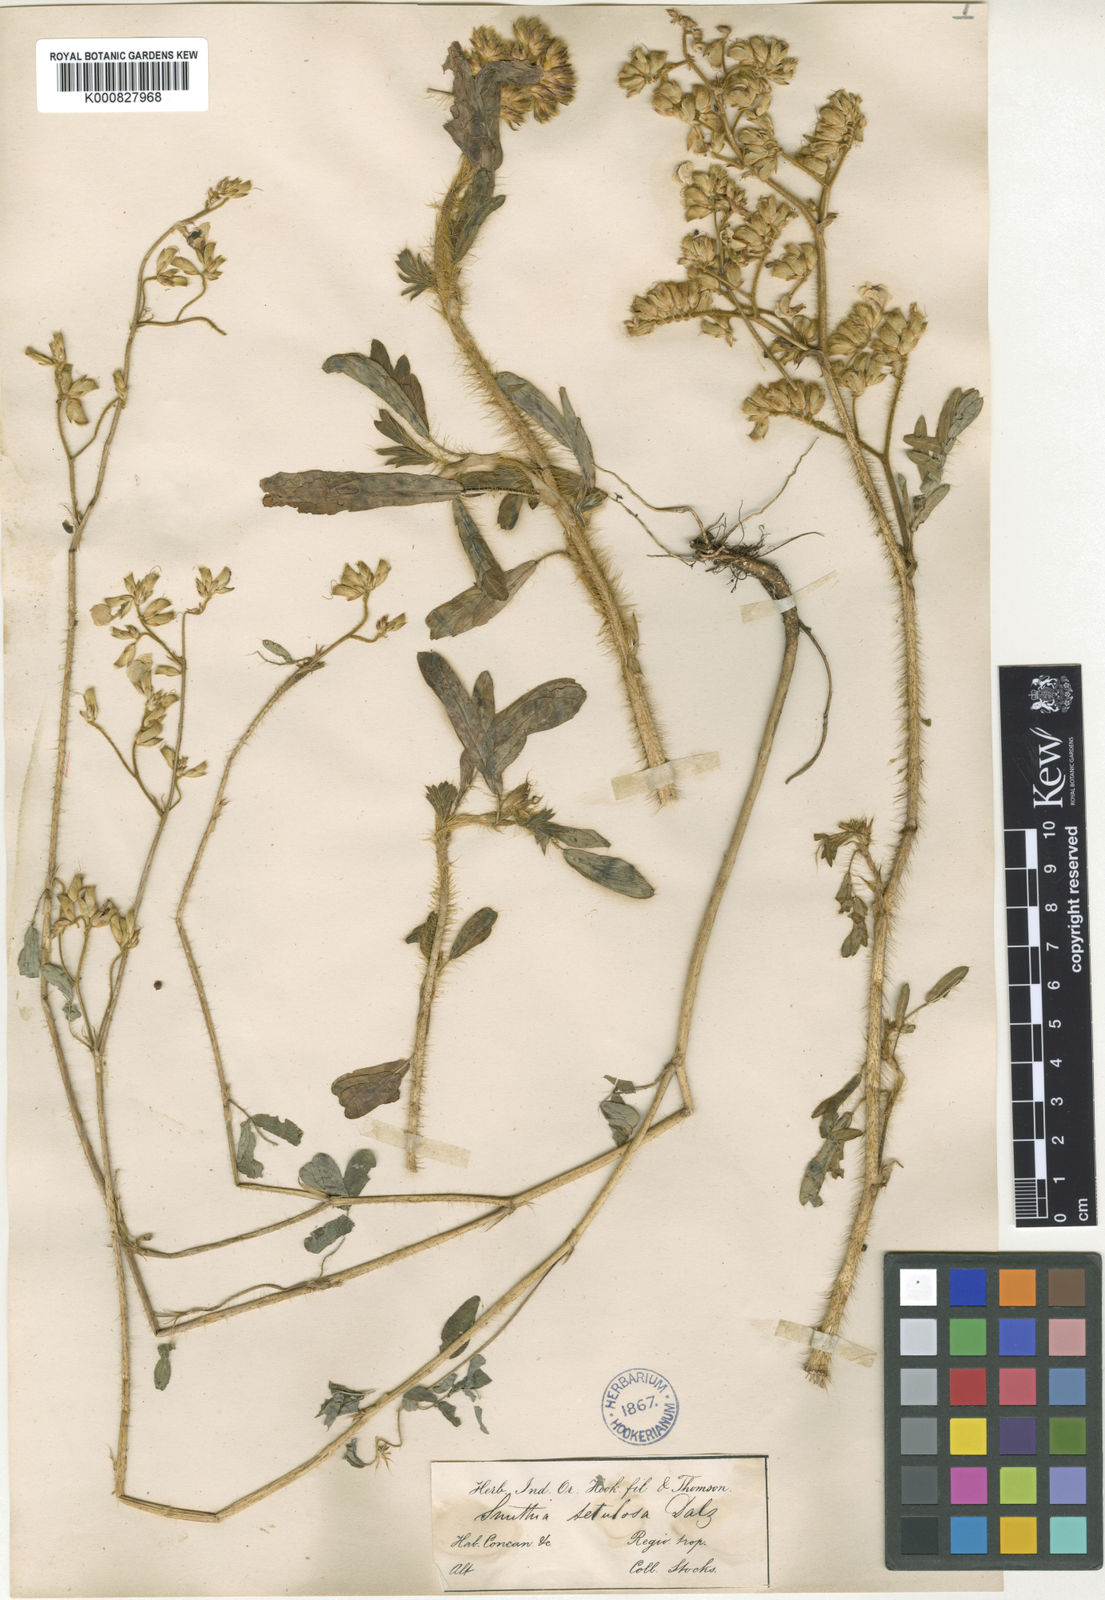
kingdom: Plantae
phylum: Tracheophyta
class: Magnoliopsida
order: Fabales
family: Fabaceae
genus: Smithia
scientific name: Smithia setulosa
